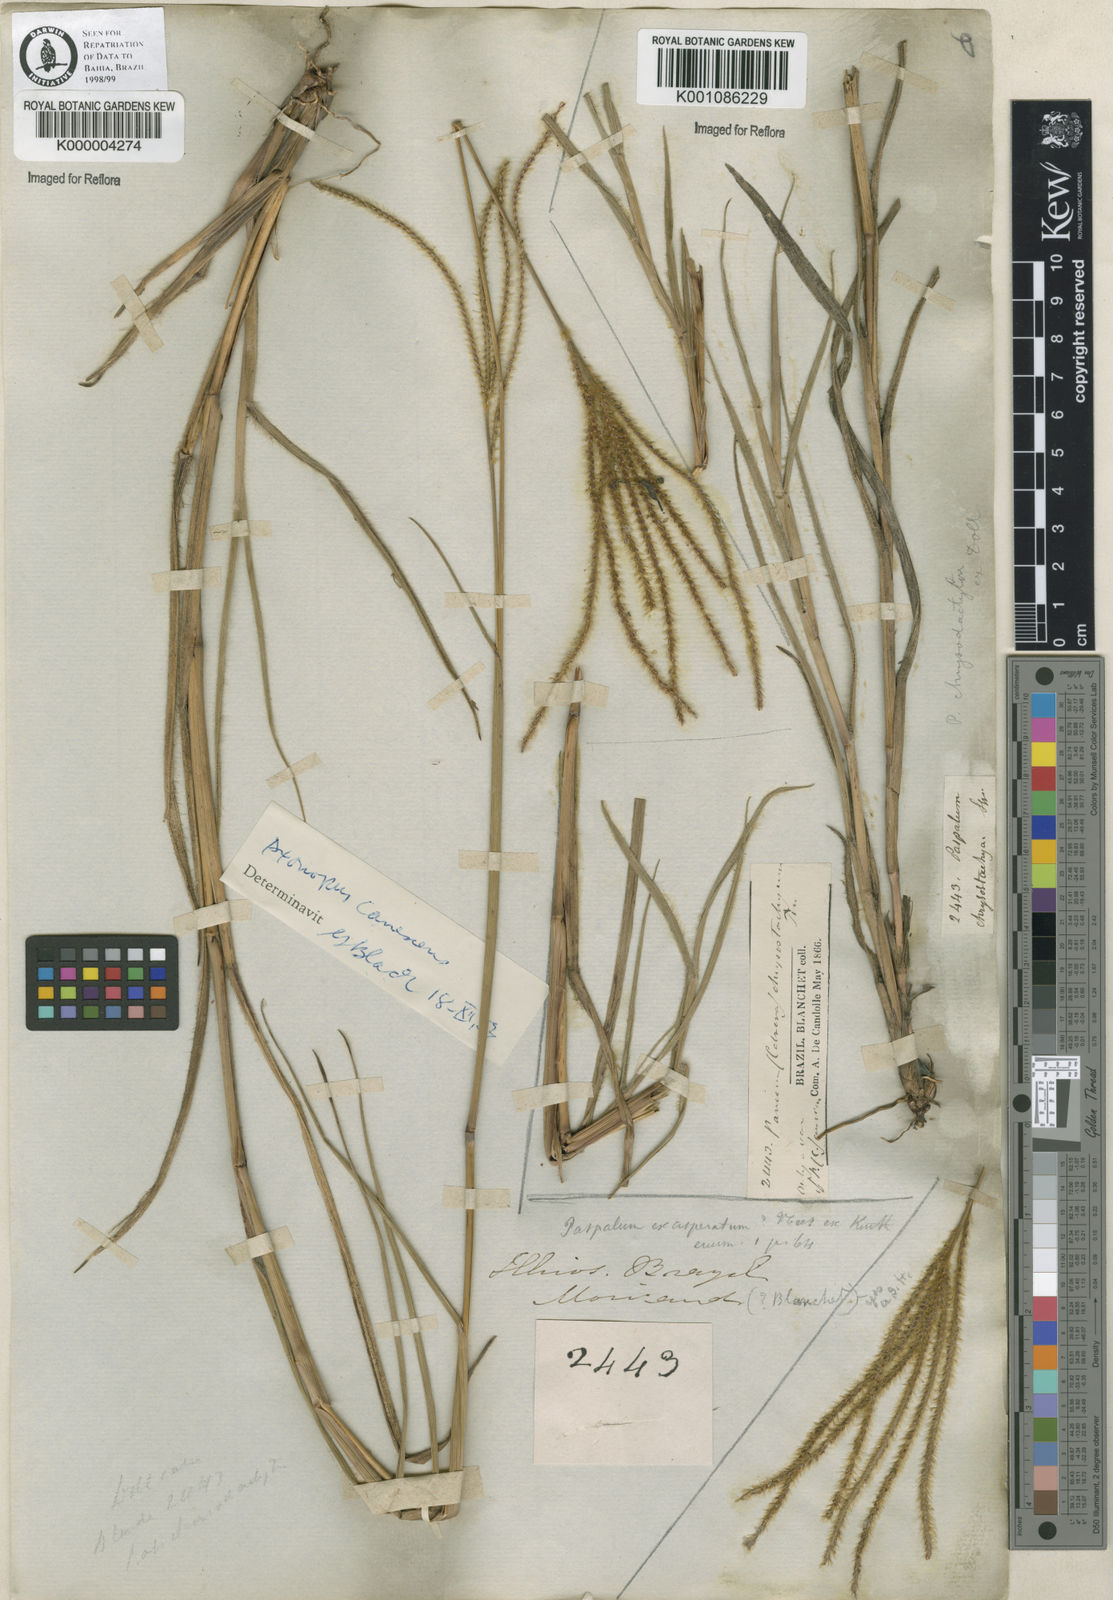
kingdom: Plantae
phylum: Tracheophyta
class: Liliopsida
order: Poales
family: Poaceae
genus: Axonopus
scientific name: Axonopus aureus
